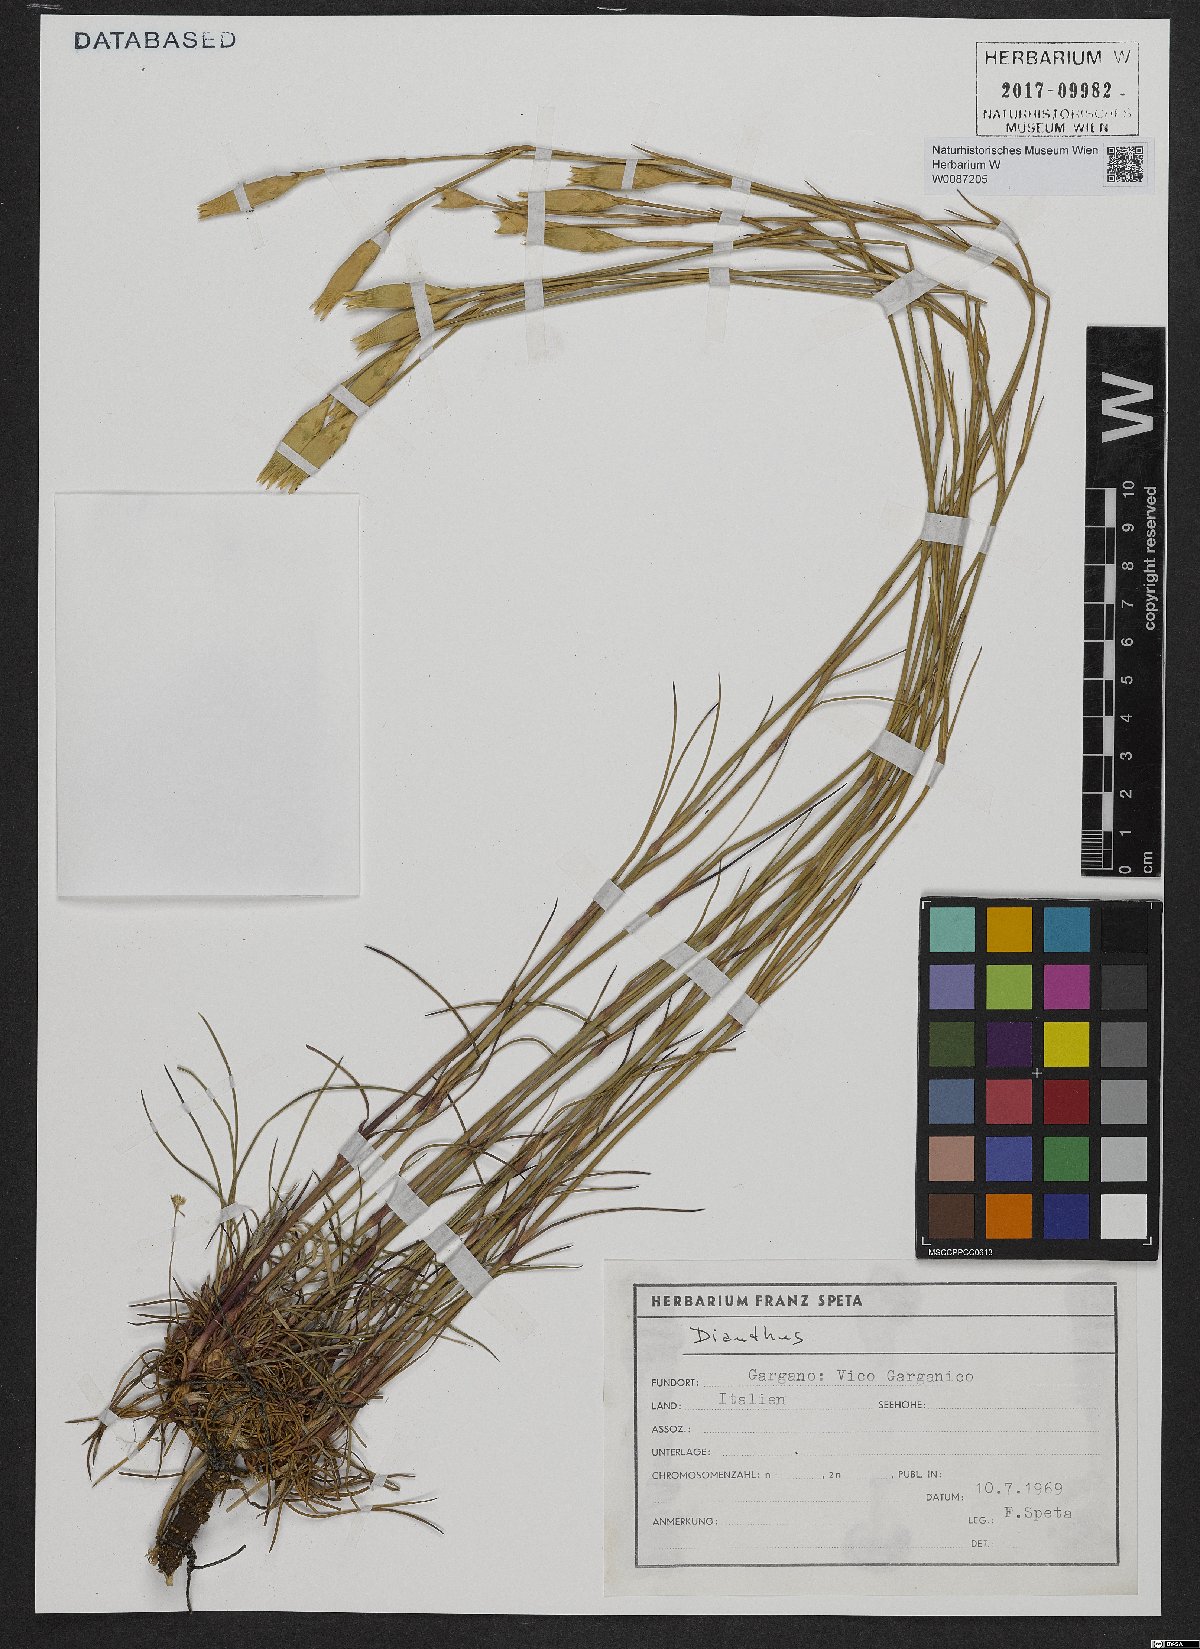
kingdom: Plantae
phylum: Tracheophyta
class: Magnoliopsida
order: Caryophyllales
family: Caryophyllaceae
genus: Dianthus
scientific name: Dianthus
